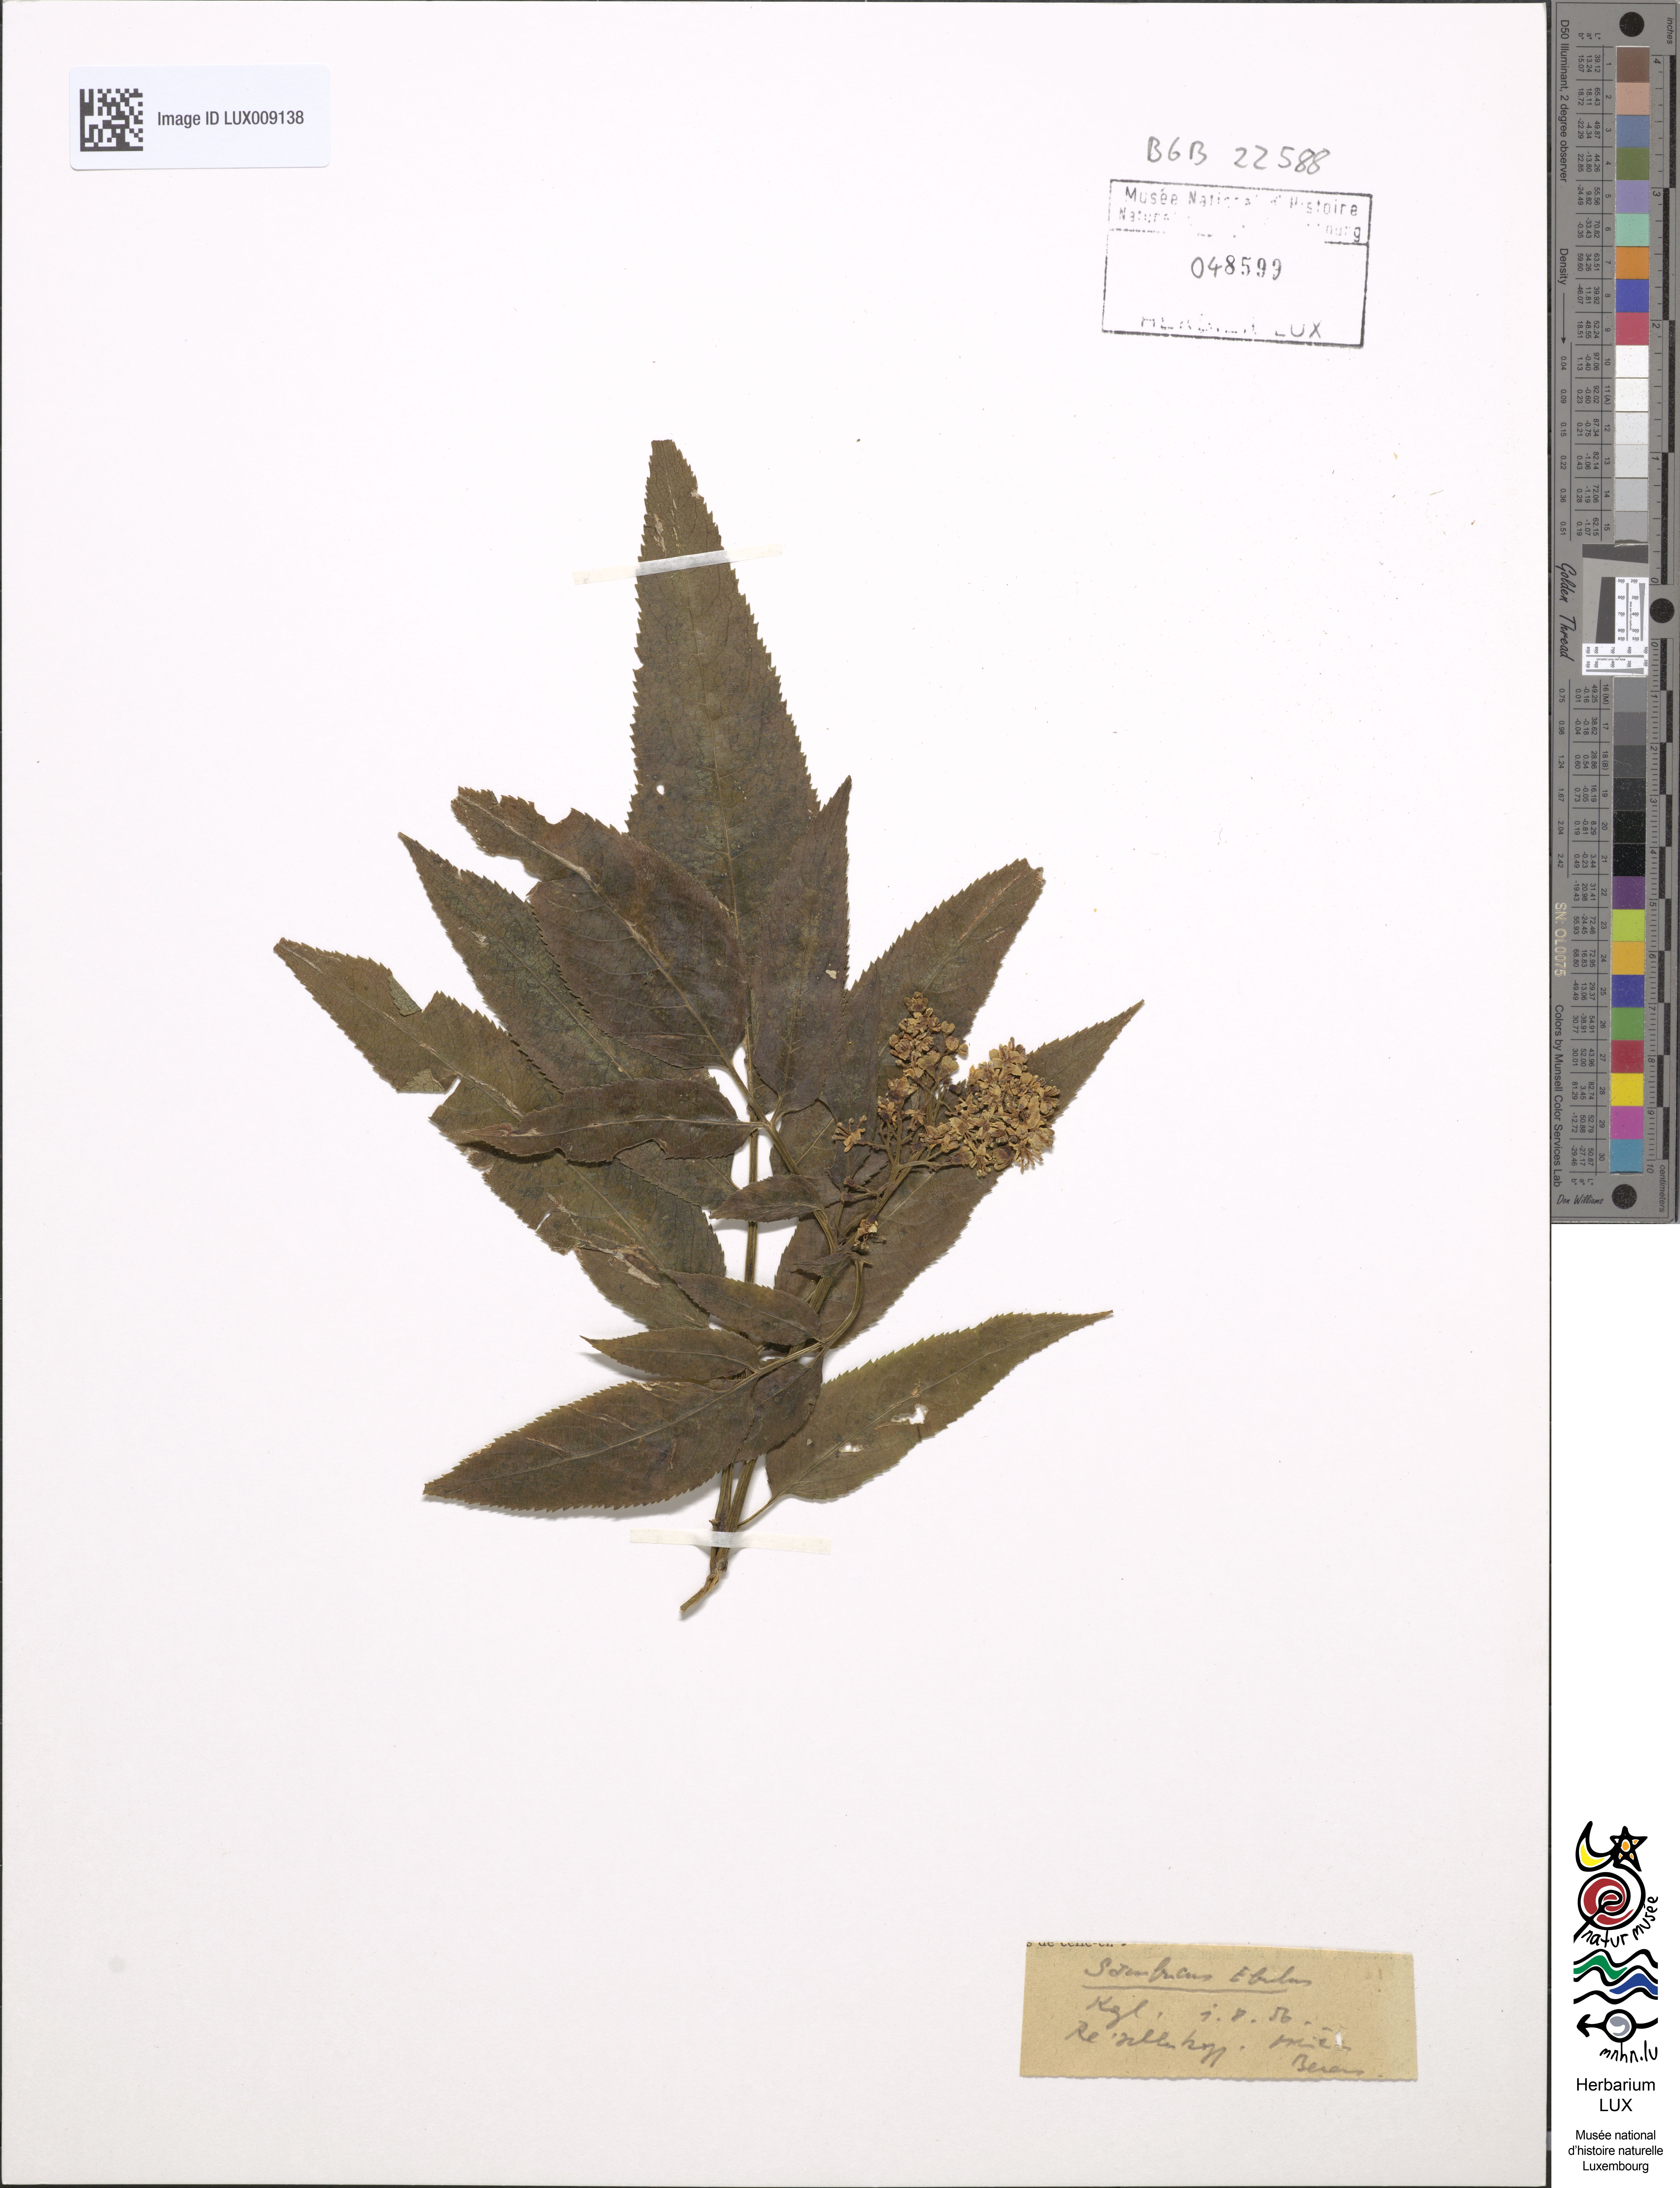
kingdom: Plantae
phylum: Tracheophyta
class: Magnoliopsida
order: Dipsacales
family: Viburnaceae
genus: Sambucus
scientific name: Sambucus ebulus
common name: Dwarf elder
